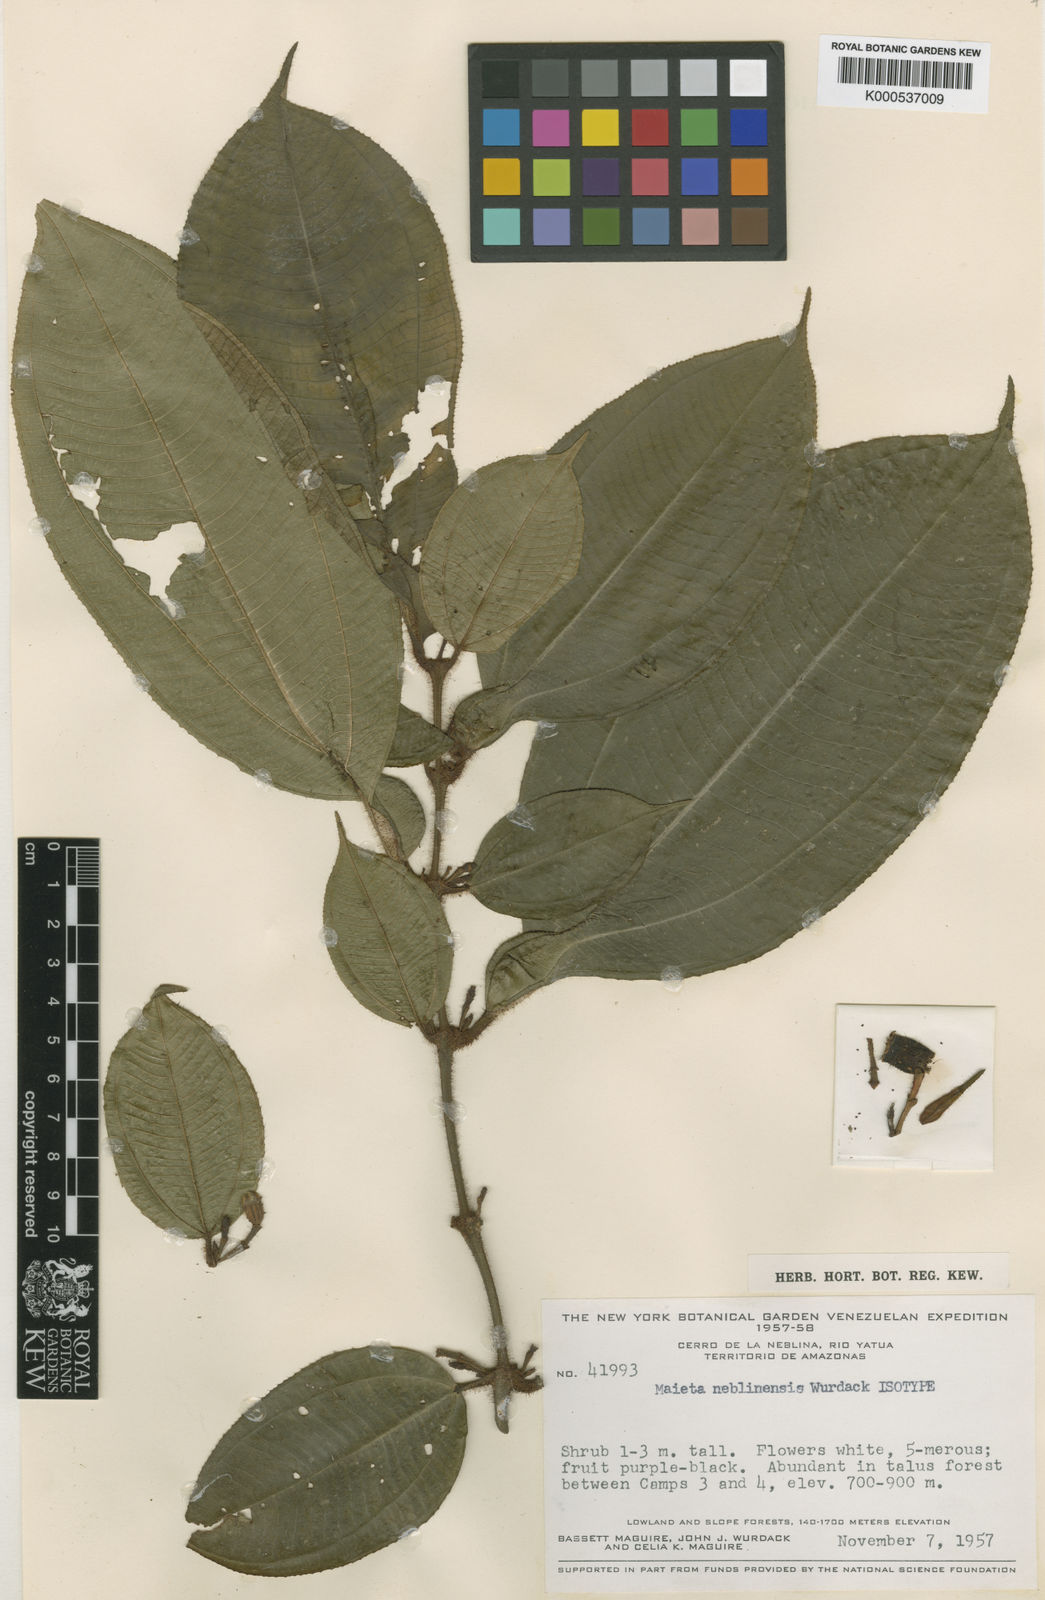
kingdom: Plantae
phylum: Tracheophyta
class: Magnoliopsida
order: Myrtales
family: Melastomataceae
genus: Miconia
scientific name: Miconia alatiflora
